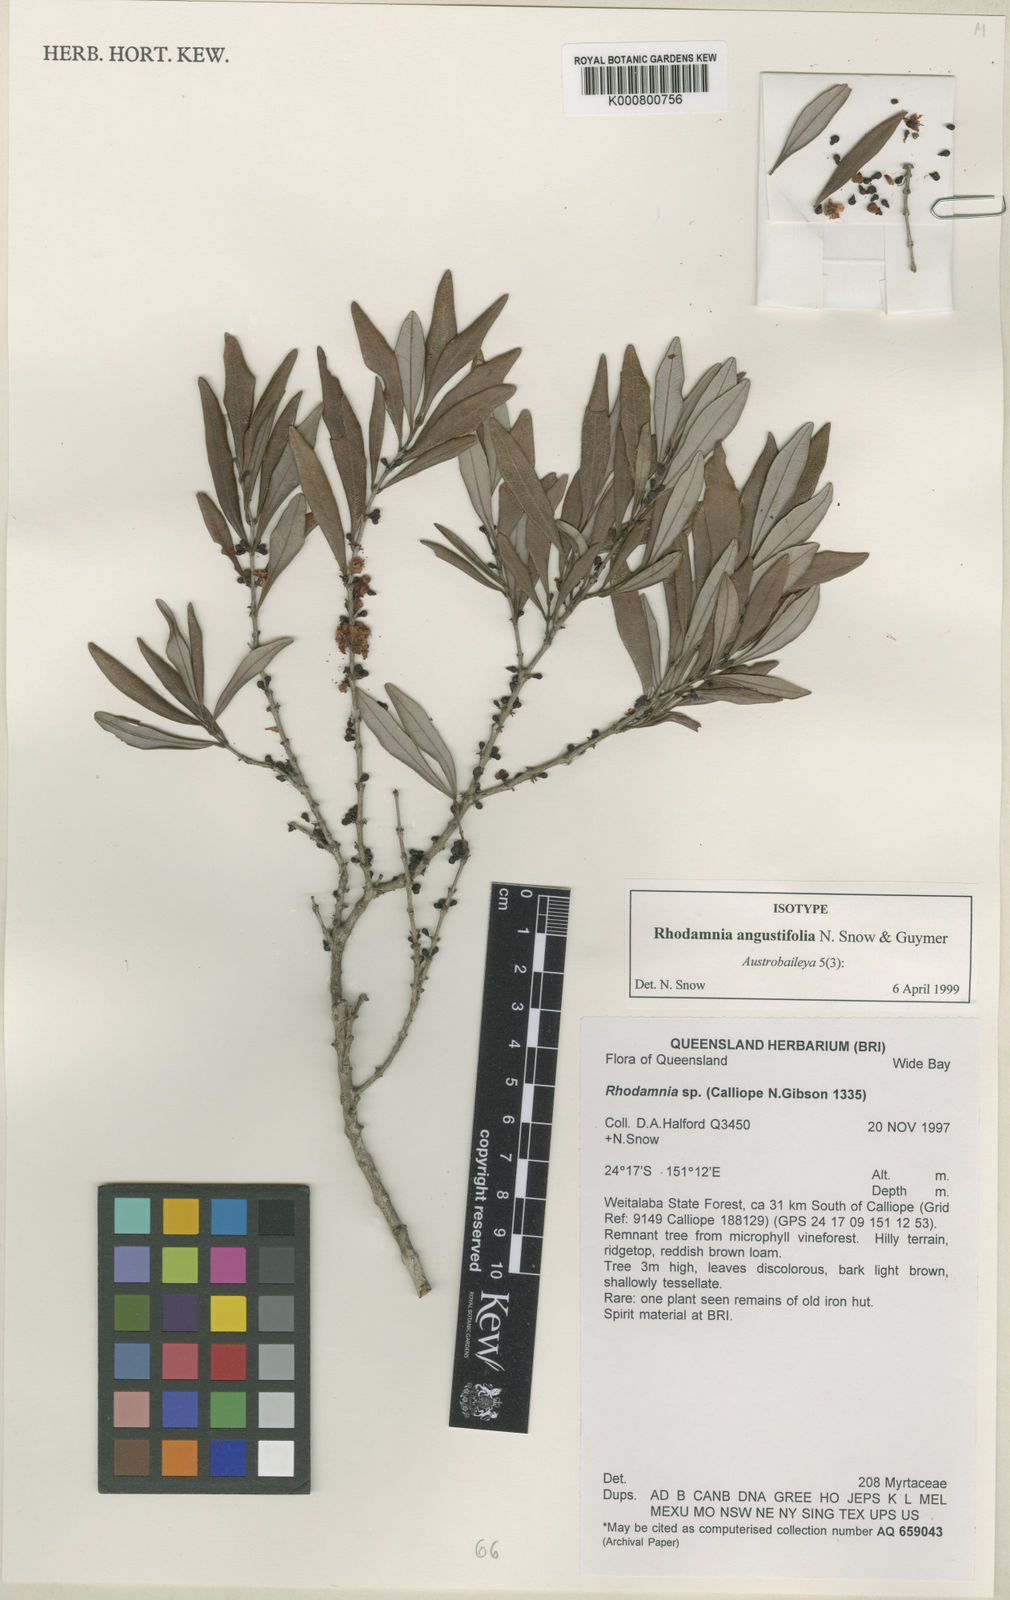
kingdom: Plantae
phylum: Tracheophyta
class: Magnoliopsida
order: Myrtales
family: Myrtaceae
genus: Rhodamnia
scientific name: Rhodamnia angustifolia
